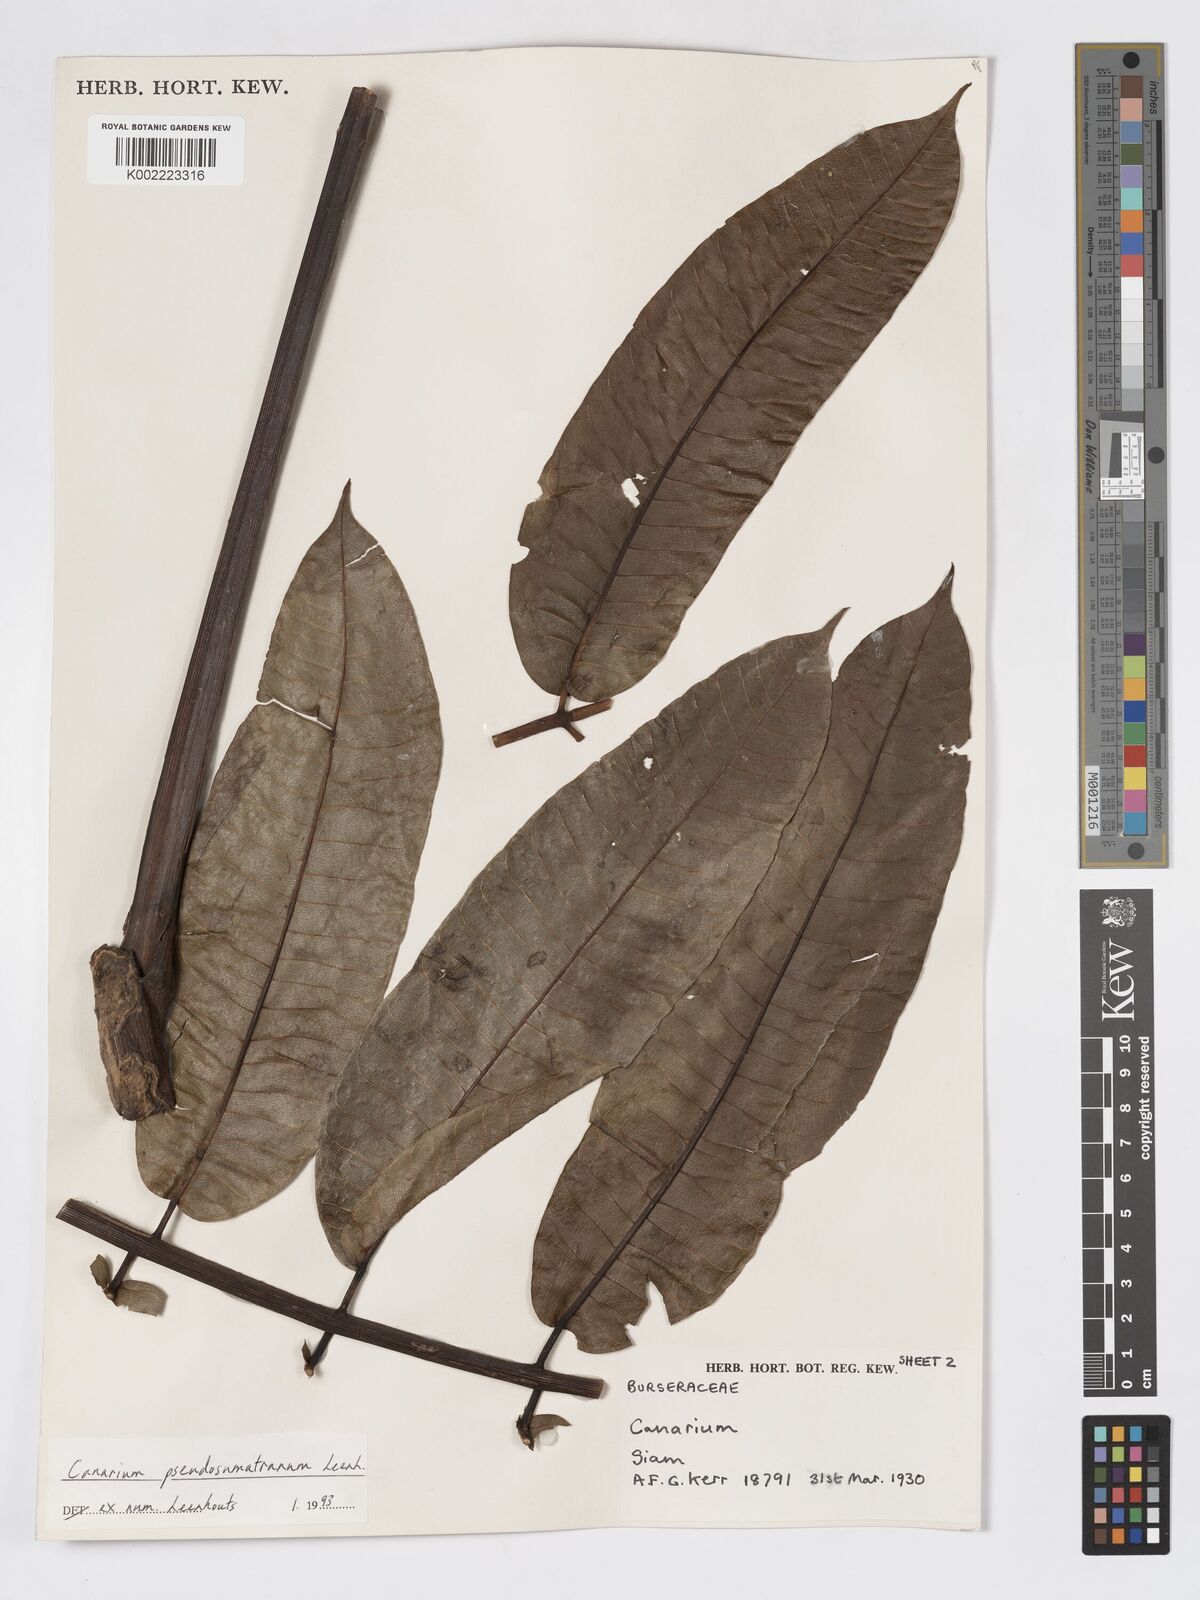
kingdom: Plantae
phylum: Tracheophyta
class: Magnoliopsida
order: Sapindales
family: Burseraceae
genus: Canarium
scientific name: Canarium pseudosumatranum
